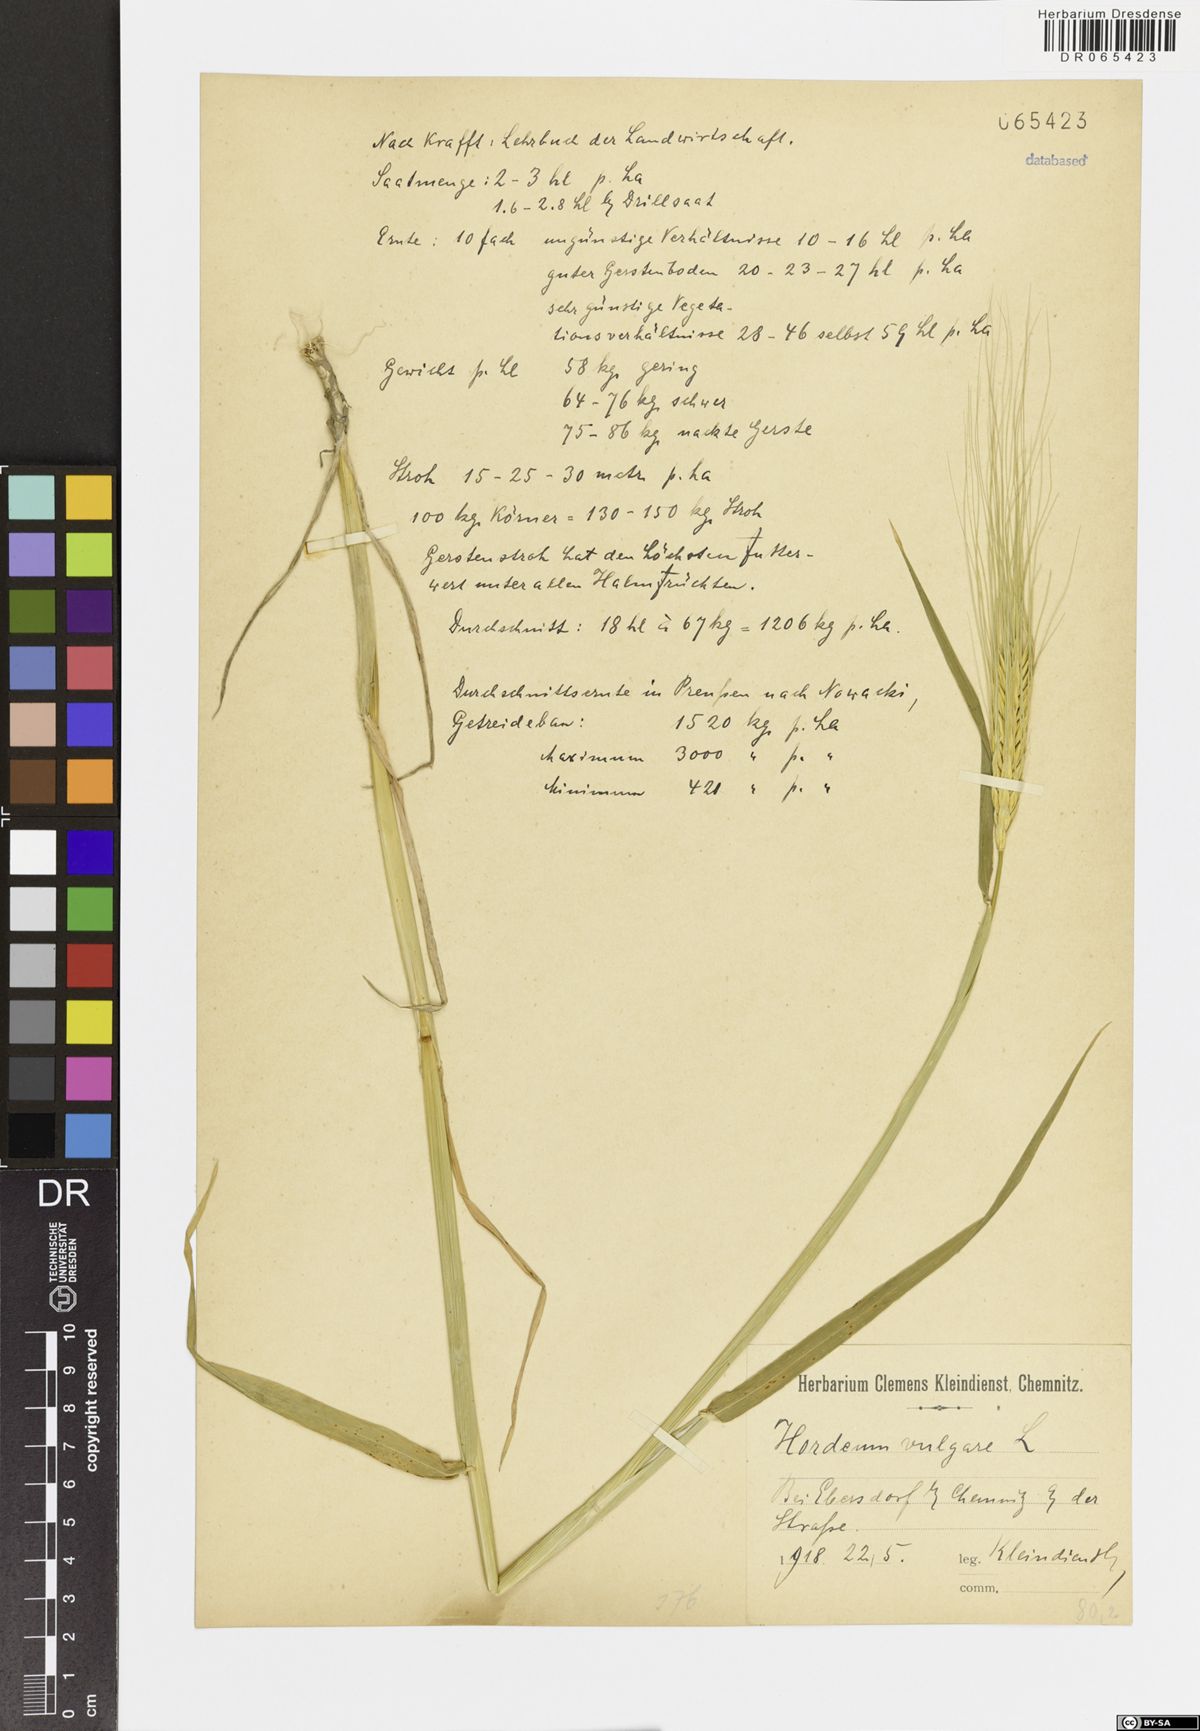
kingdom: Plantae
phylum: Tracheophyta
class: Liliopsida
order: Poales
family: Poaceae
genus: Hordeum
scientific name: Hordeum vulgare
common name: Common barley
